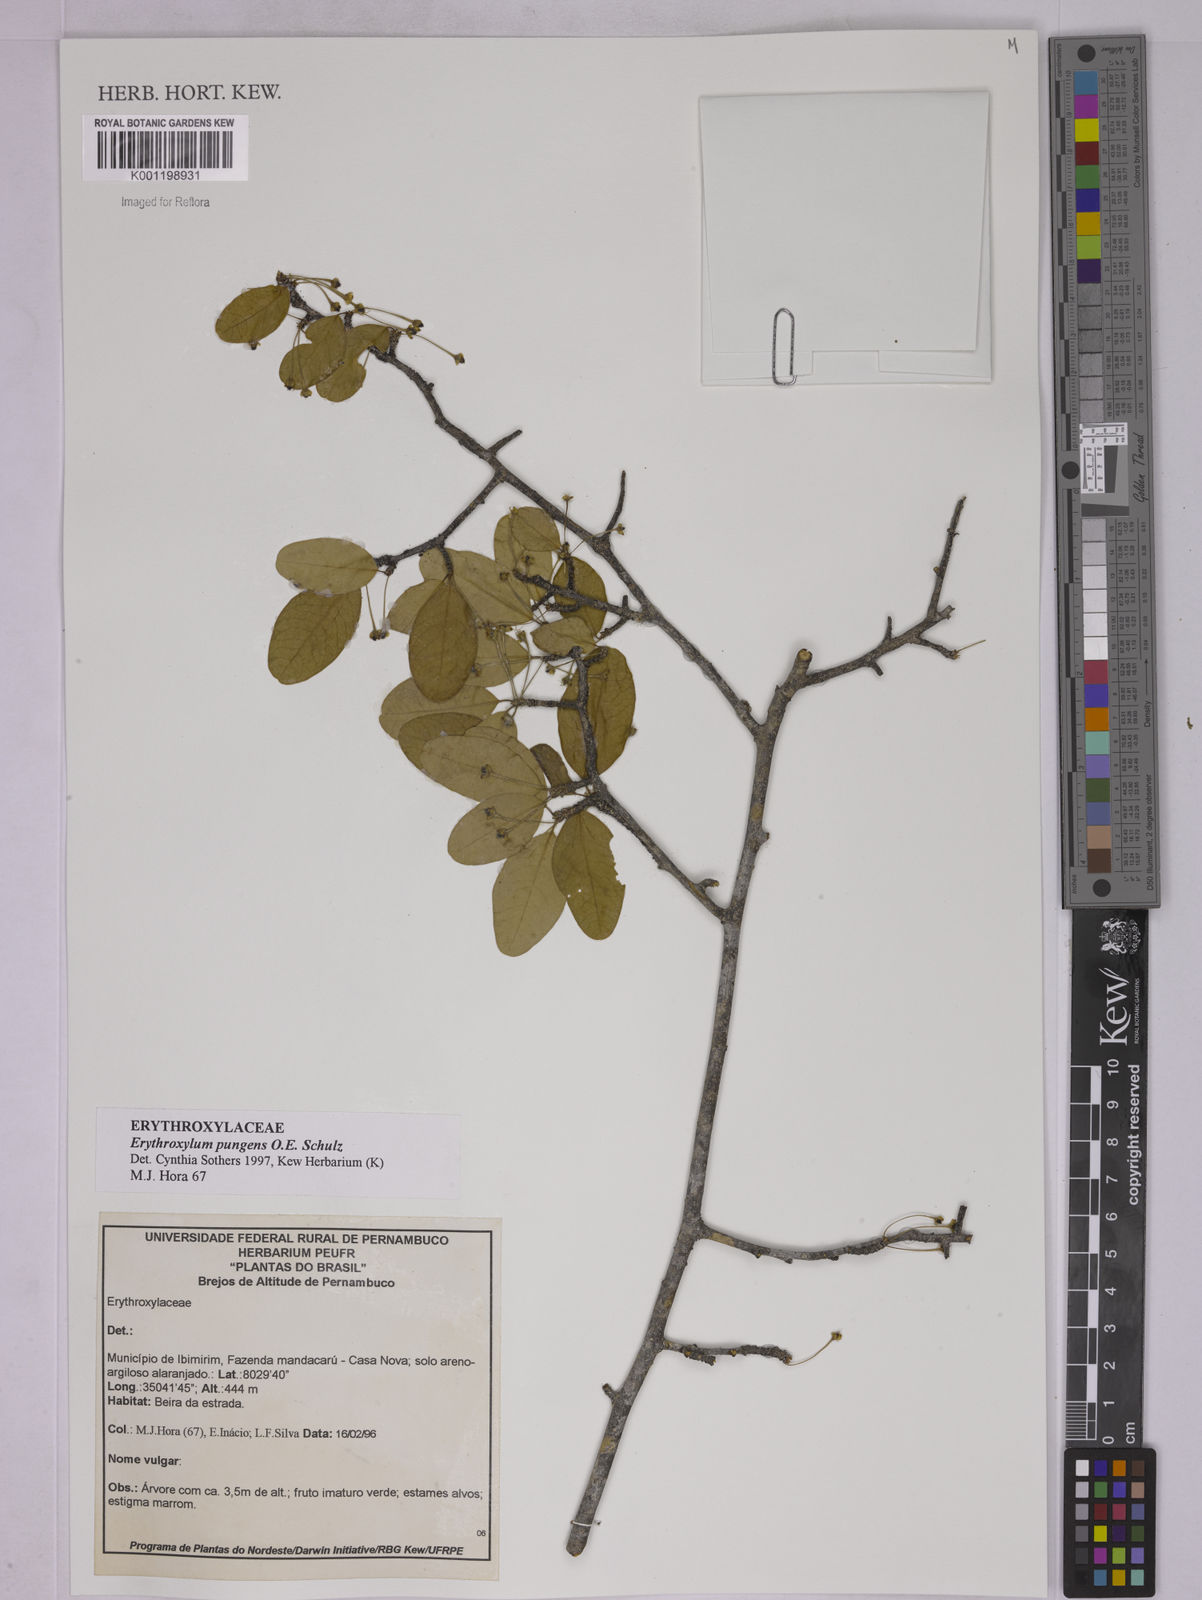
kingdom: Plantae
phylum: Tracheophyta
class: Magnoliopsida
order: Malpighiales
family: Erythroxylaceae
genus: Erythroxylum
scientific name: Erythroxylum pungens
